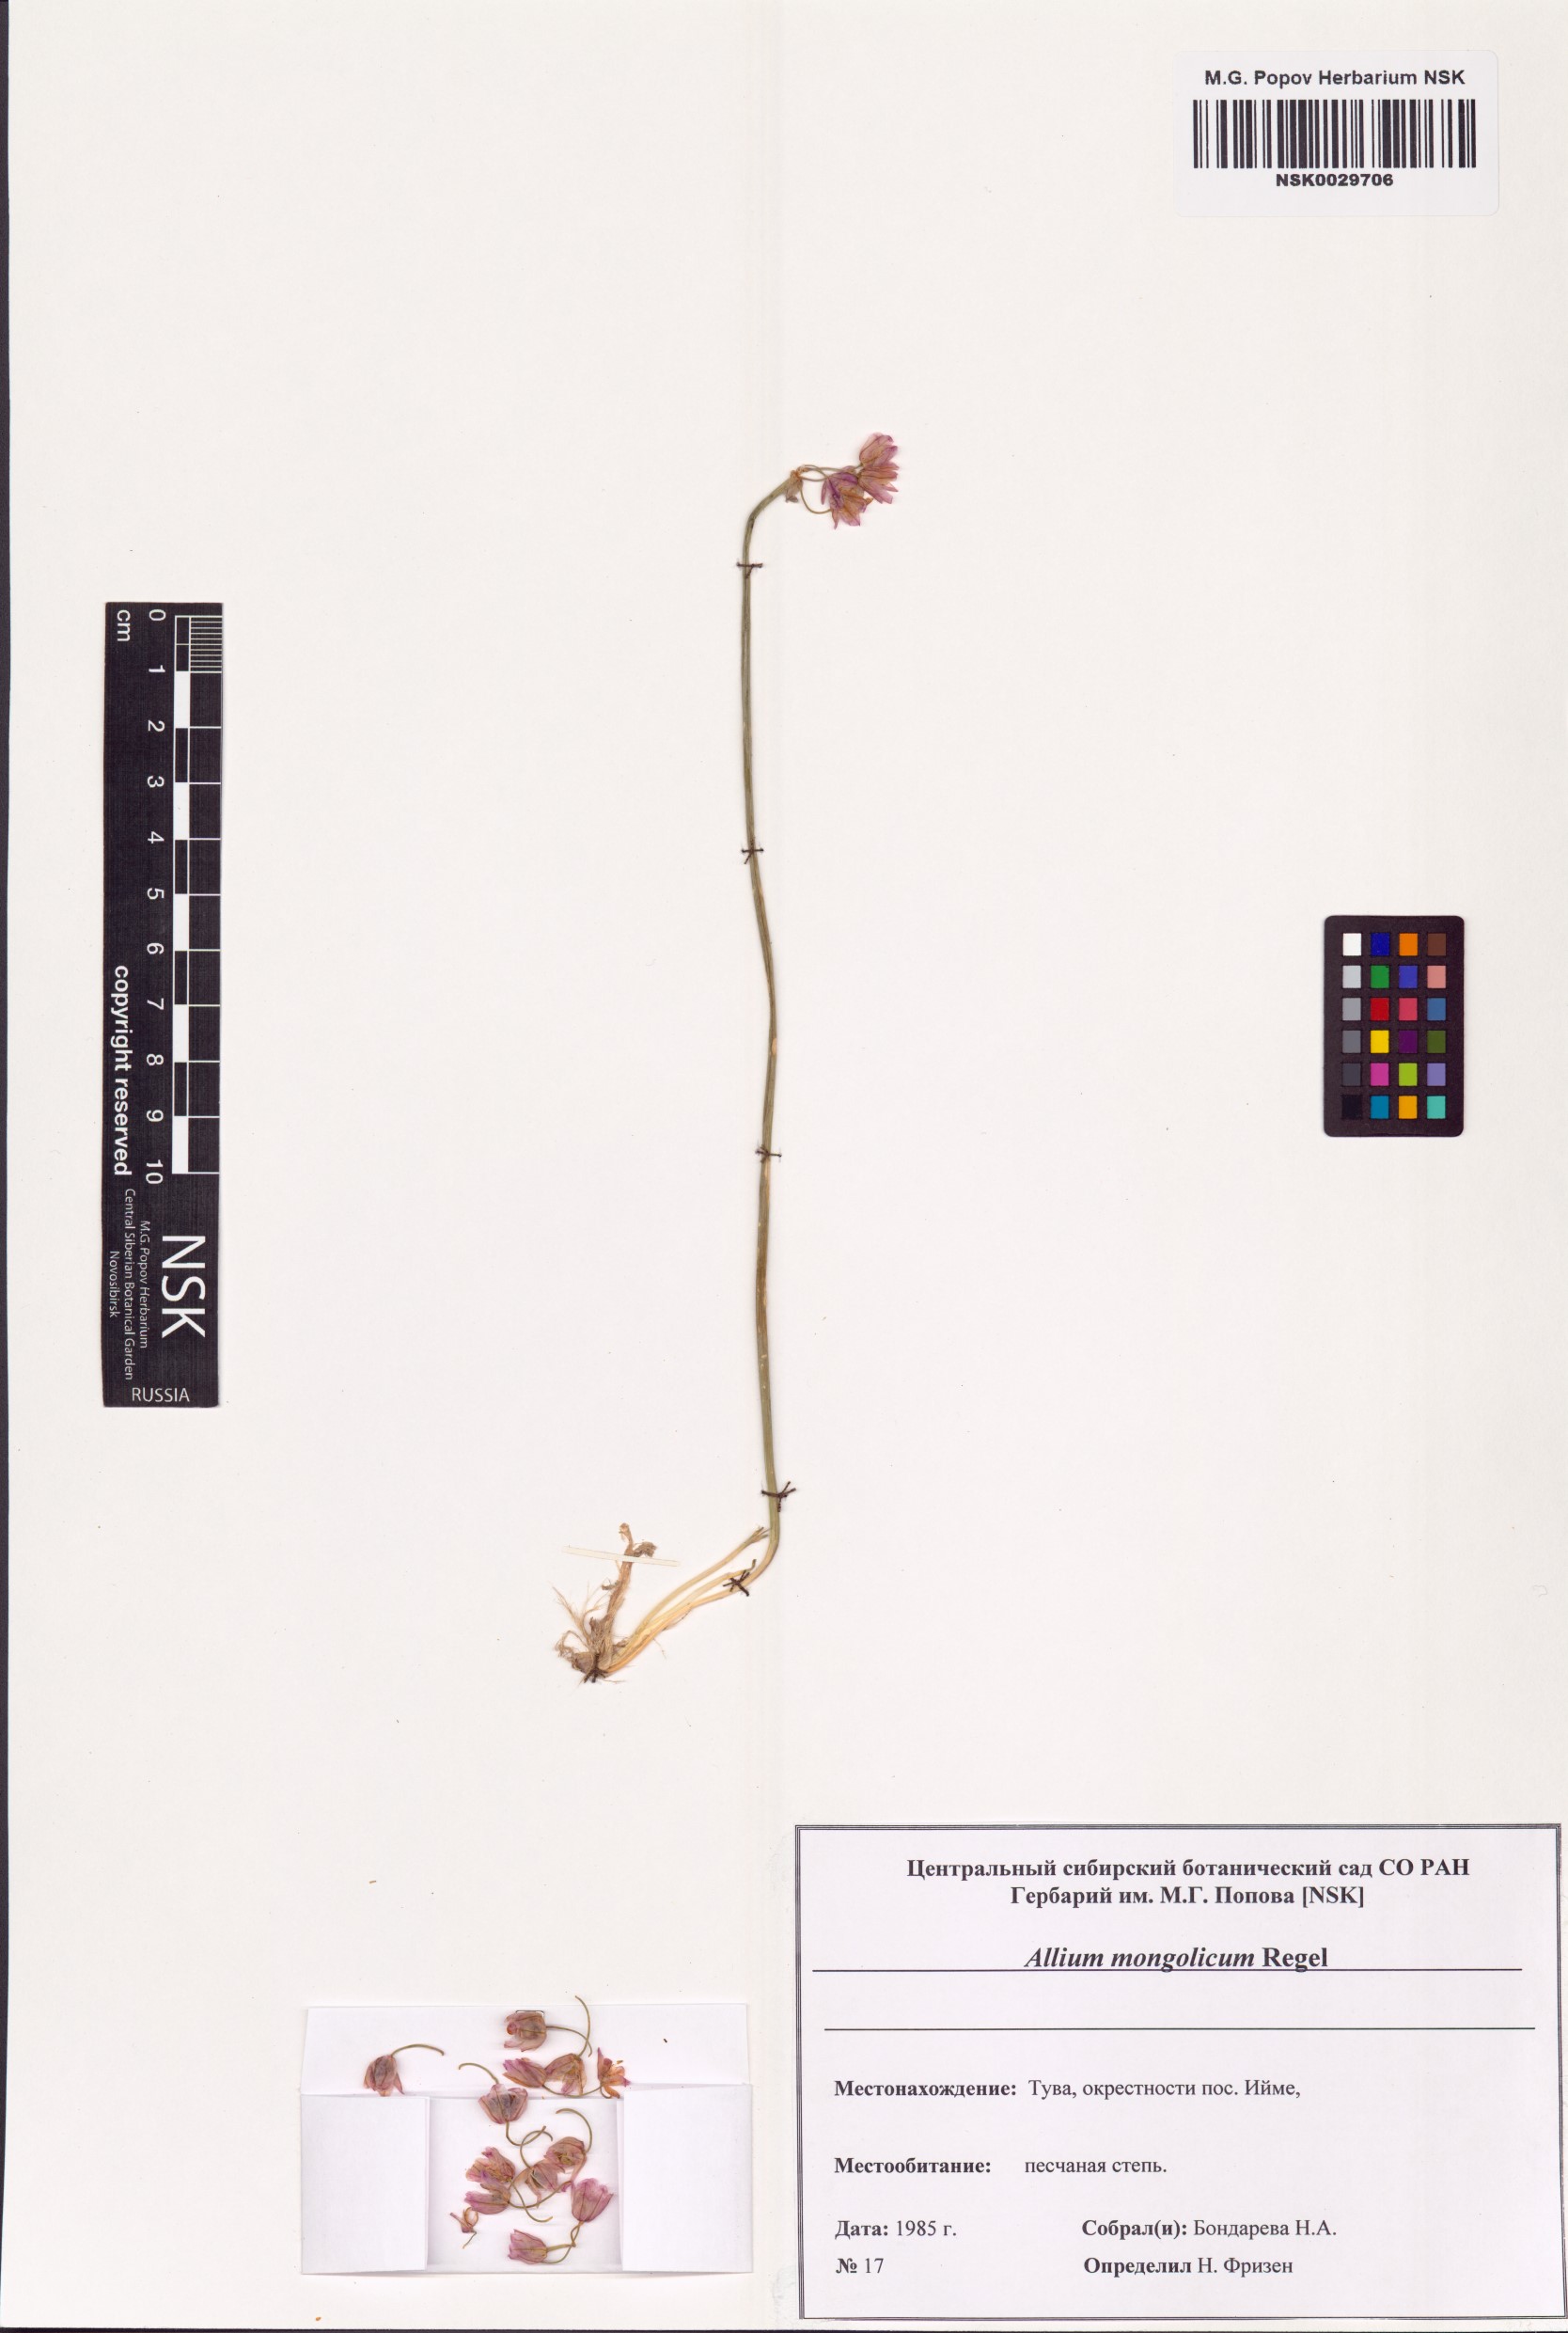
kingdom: Plantae
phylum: Tracheophyta
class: Liliopsida
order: Asparagales
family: Amaryllidaceae
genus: Allium
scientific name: Allium mongolicum
